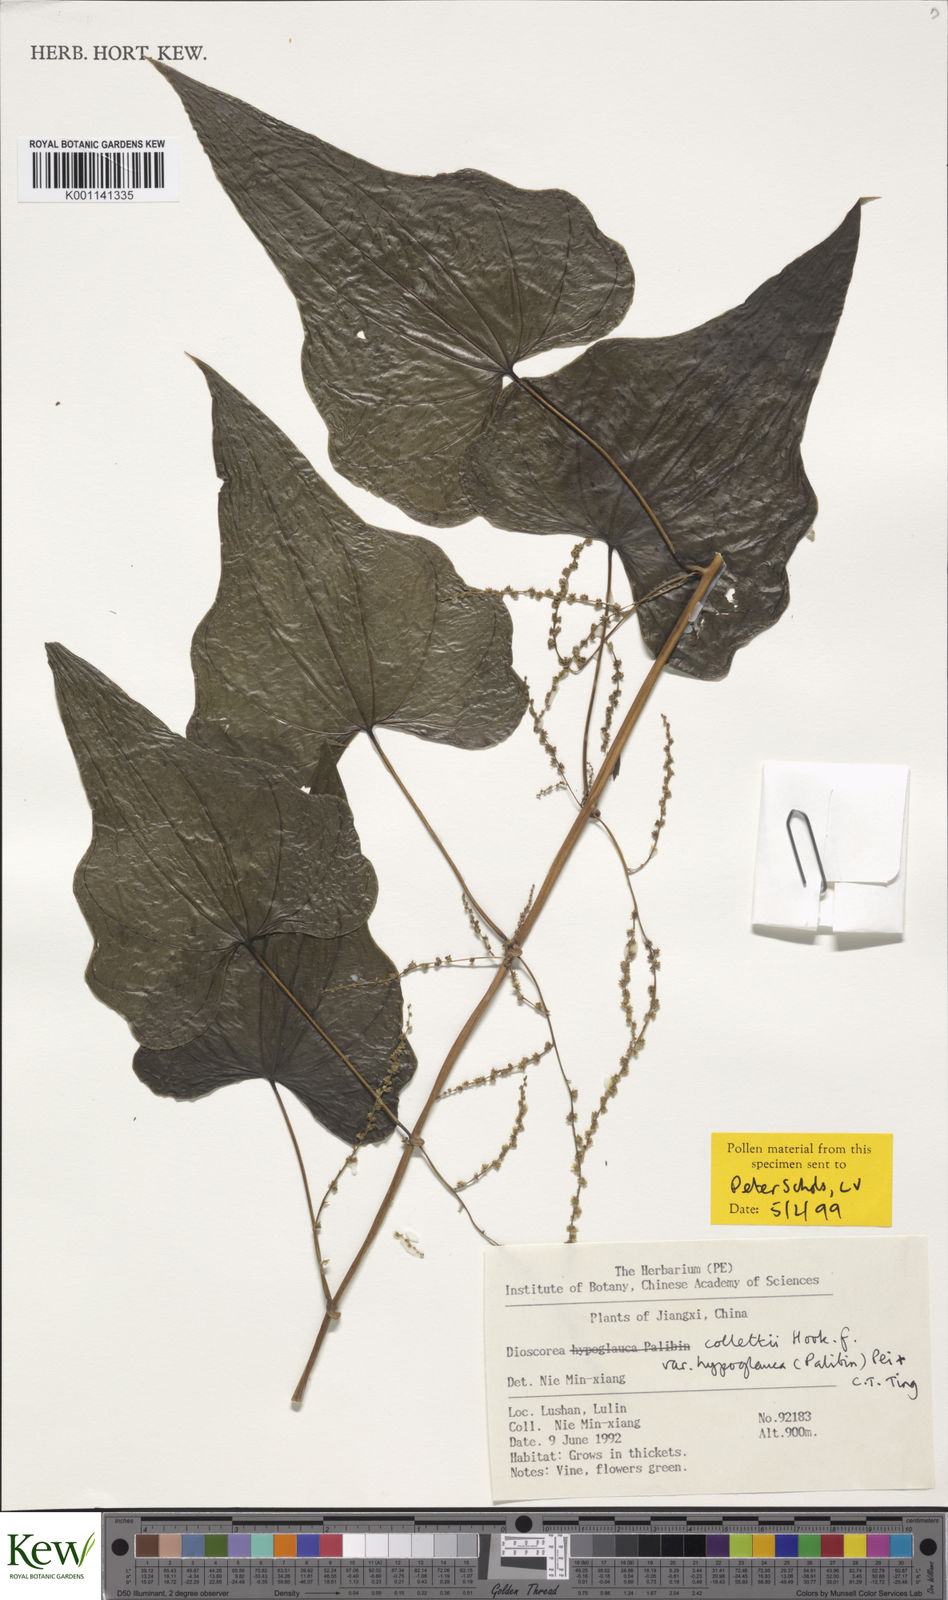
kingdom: Plantae
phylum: Tracheophyta
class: Liliopsida
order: Dioscoreales
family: Dioscoreaceae
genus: Dioscorea
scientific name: Dioscorea collettii
